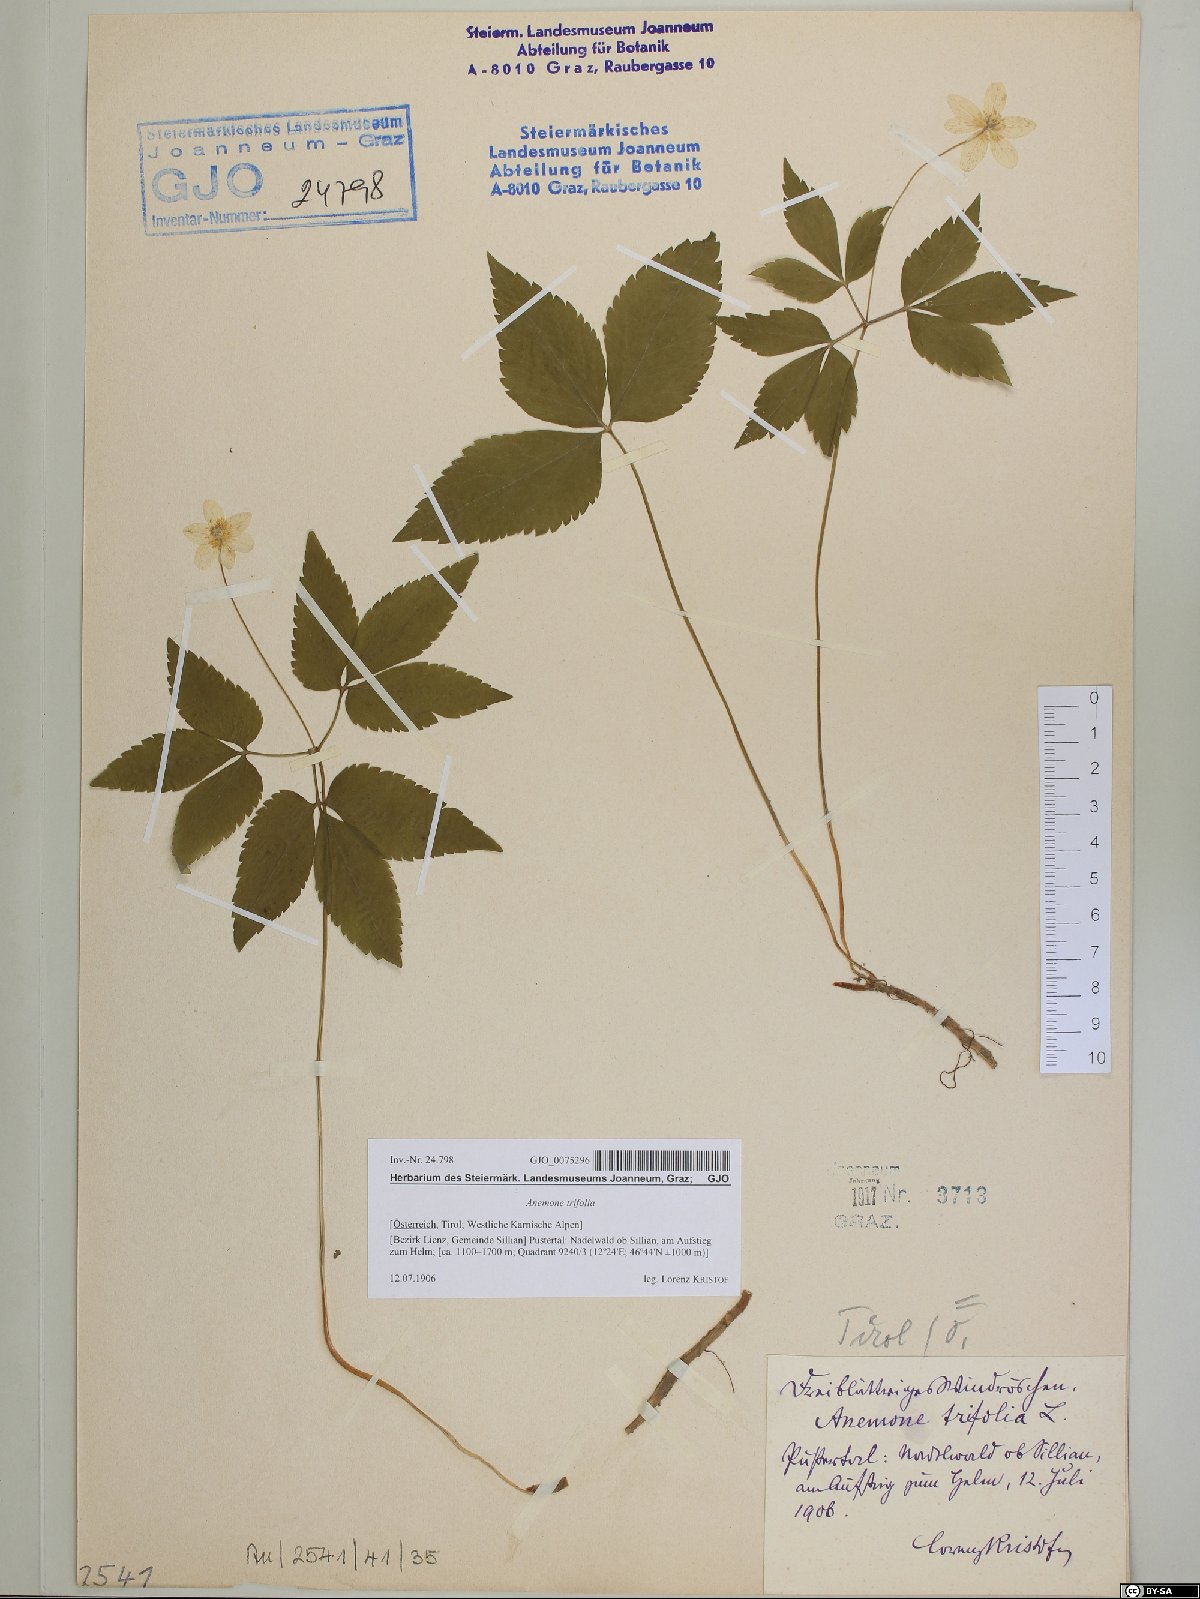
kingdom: Plantae
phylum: Tracheophyta
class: Magnoliopsida
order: Ranunculales
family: Ranunculaceae
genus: Anemone
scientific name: Anemone trifolia
